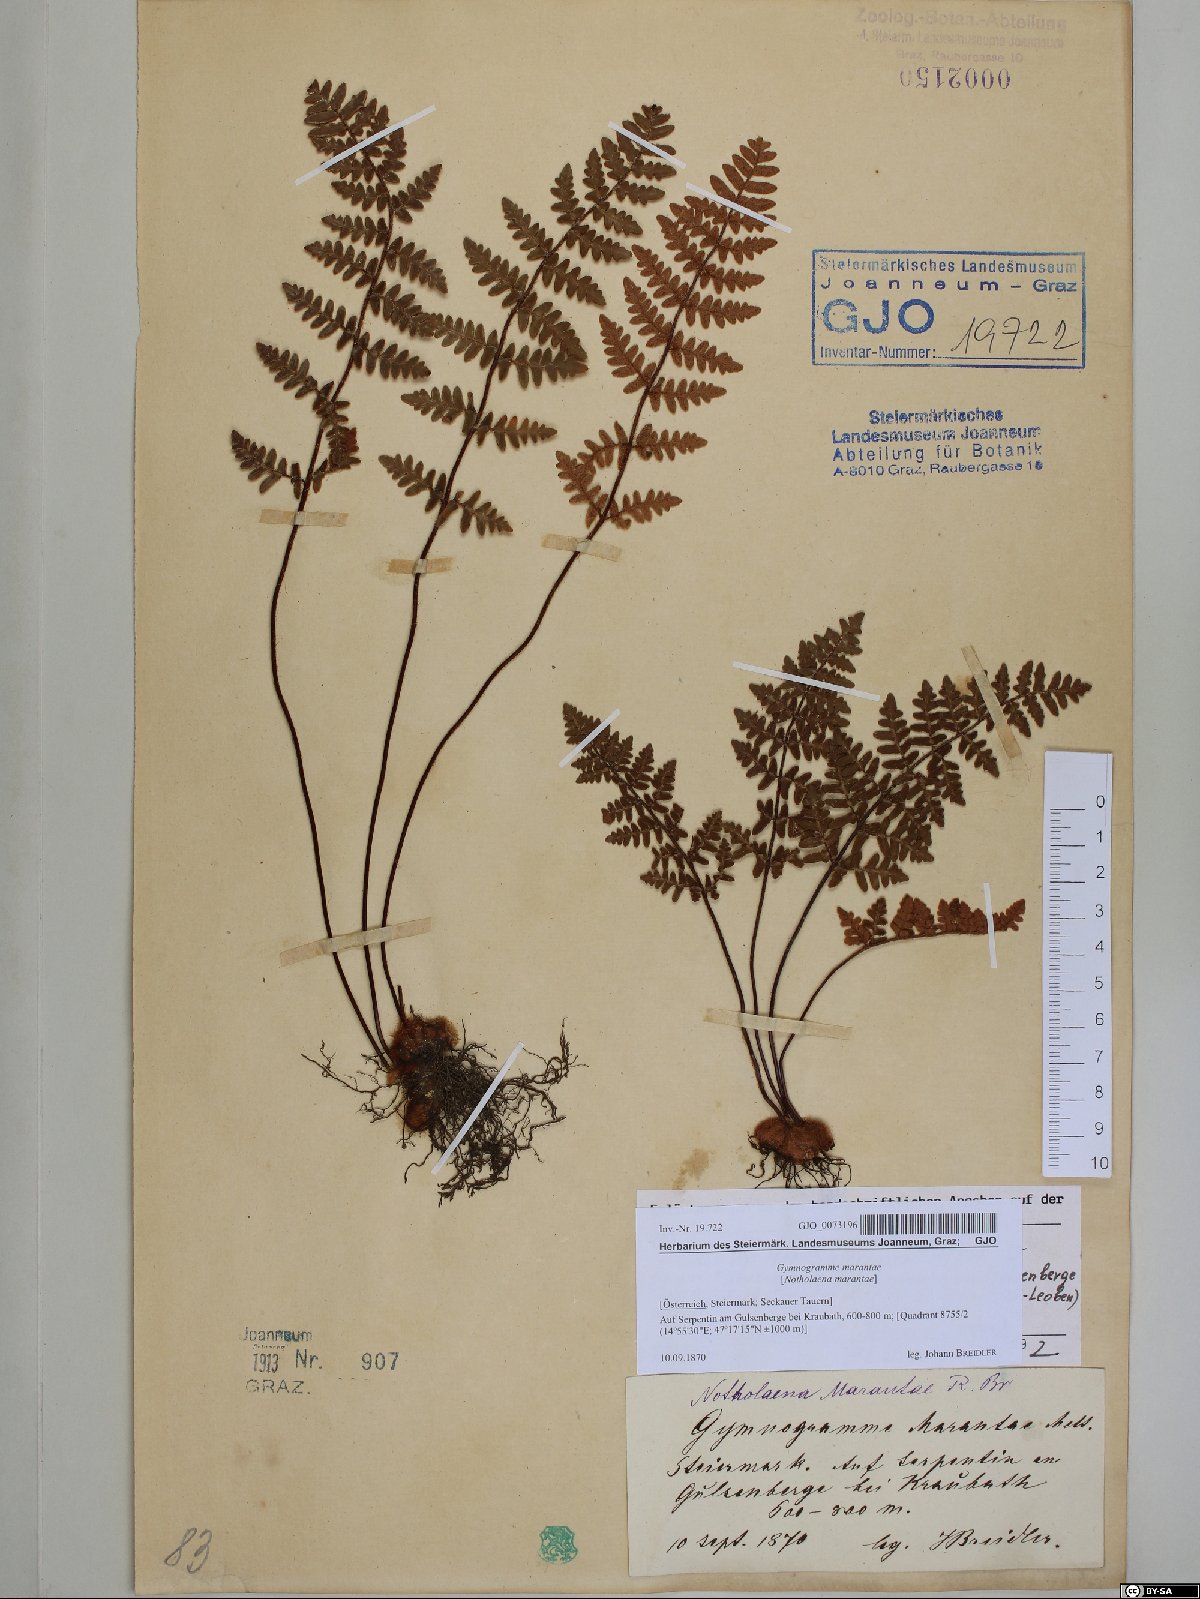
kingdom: Plantae
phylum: Tracheophyta
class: Polypodiopsida
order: Polypodiales
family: Pteridaceae
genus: Paragymnopteris
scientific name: Paragymnopteris marantae
